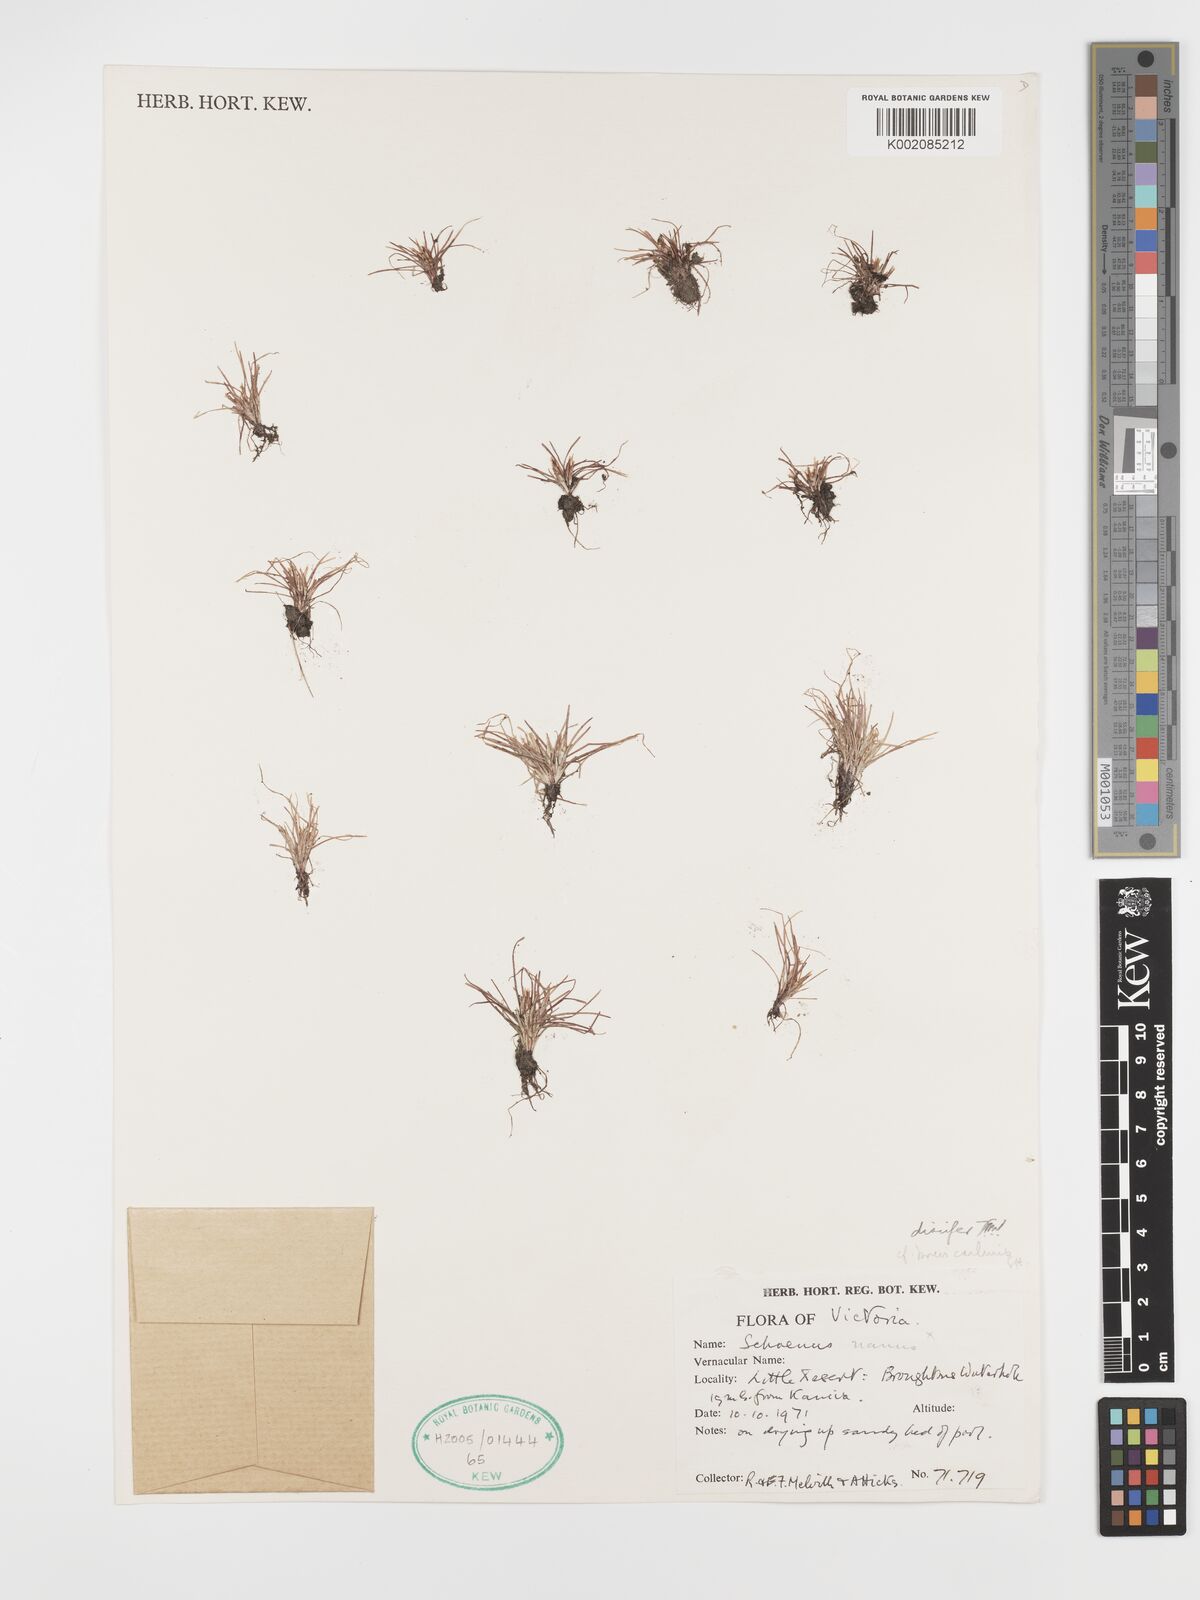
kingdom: Plantae
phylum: Tracheophyta
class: Liliopsida
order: Poales
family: Cyperaceae
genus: Schoenus
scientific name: Schoenus nanus
